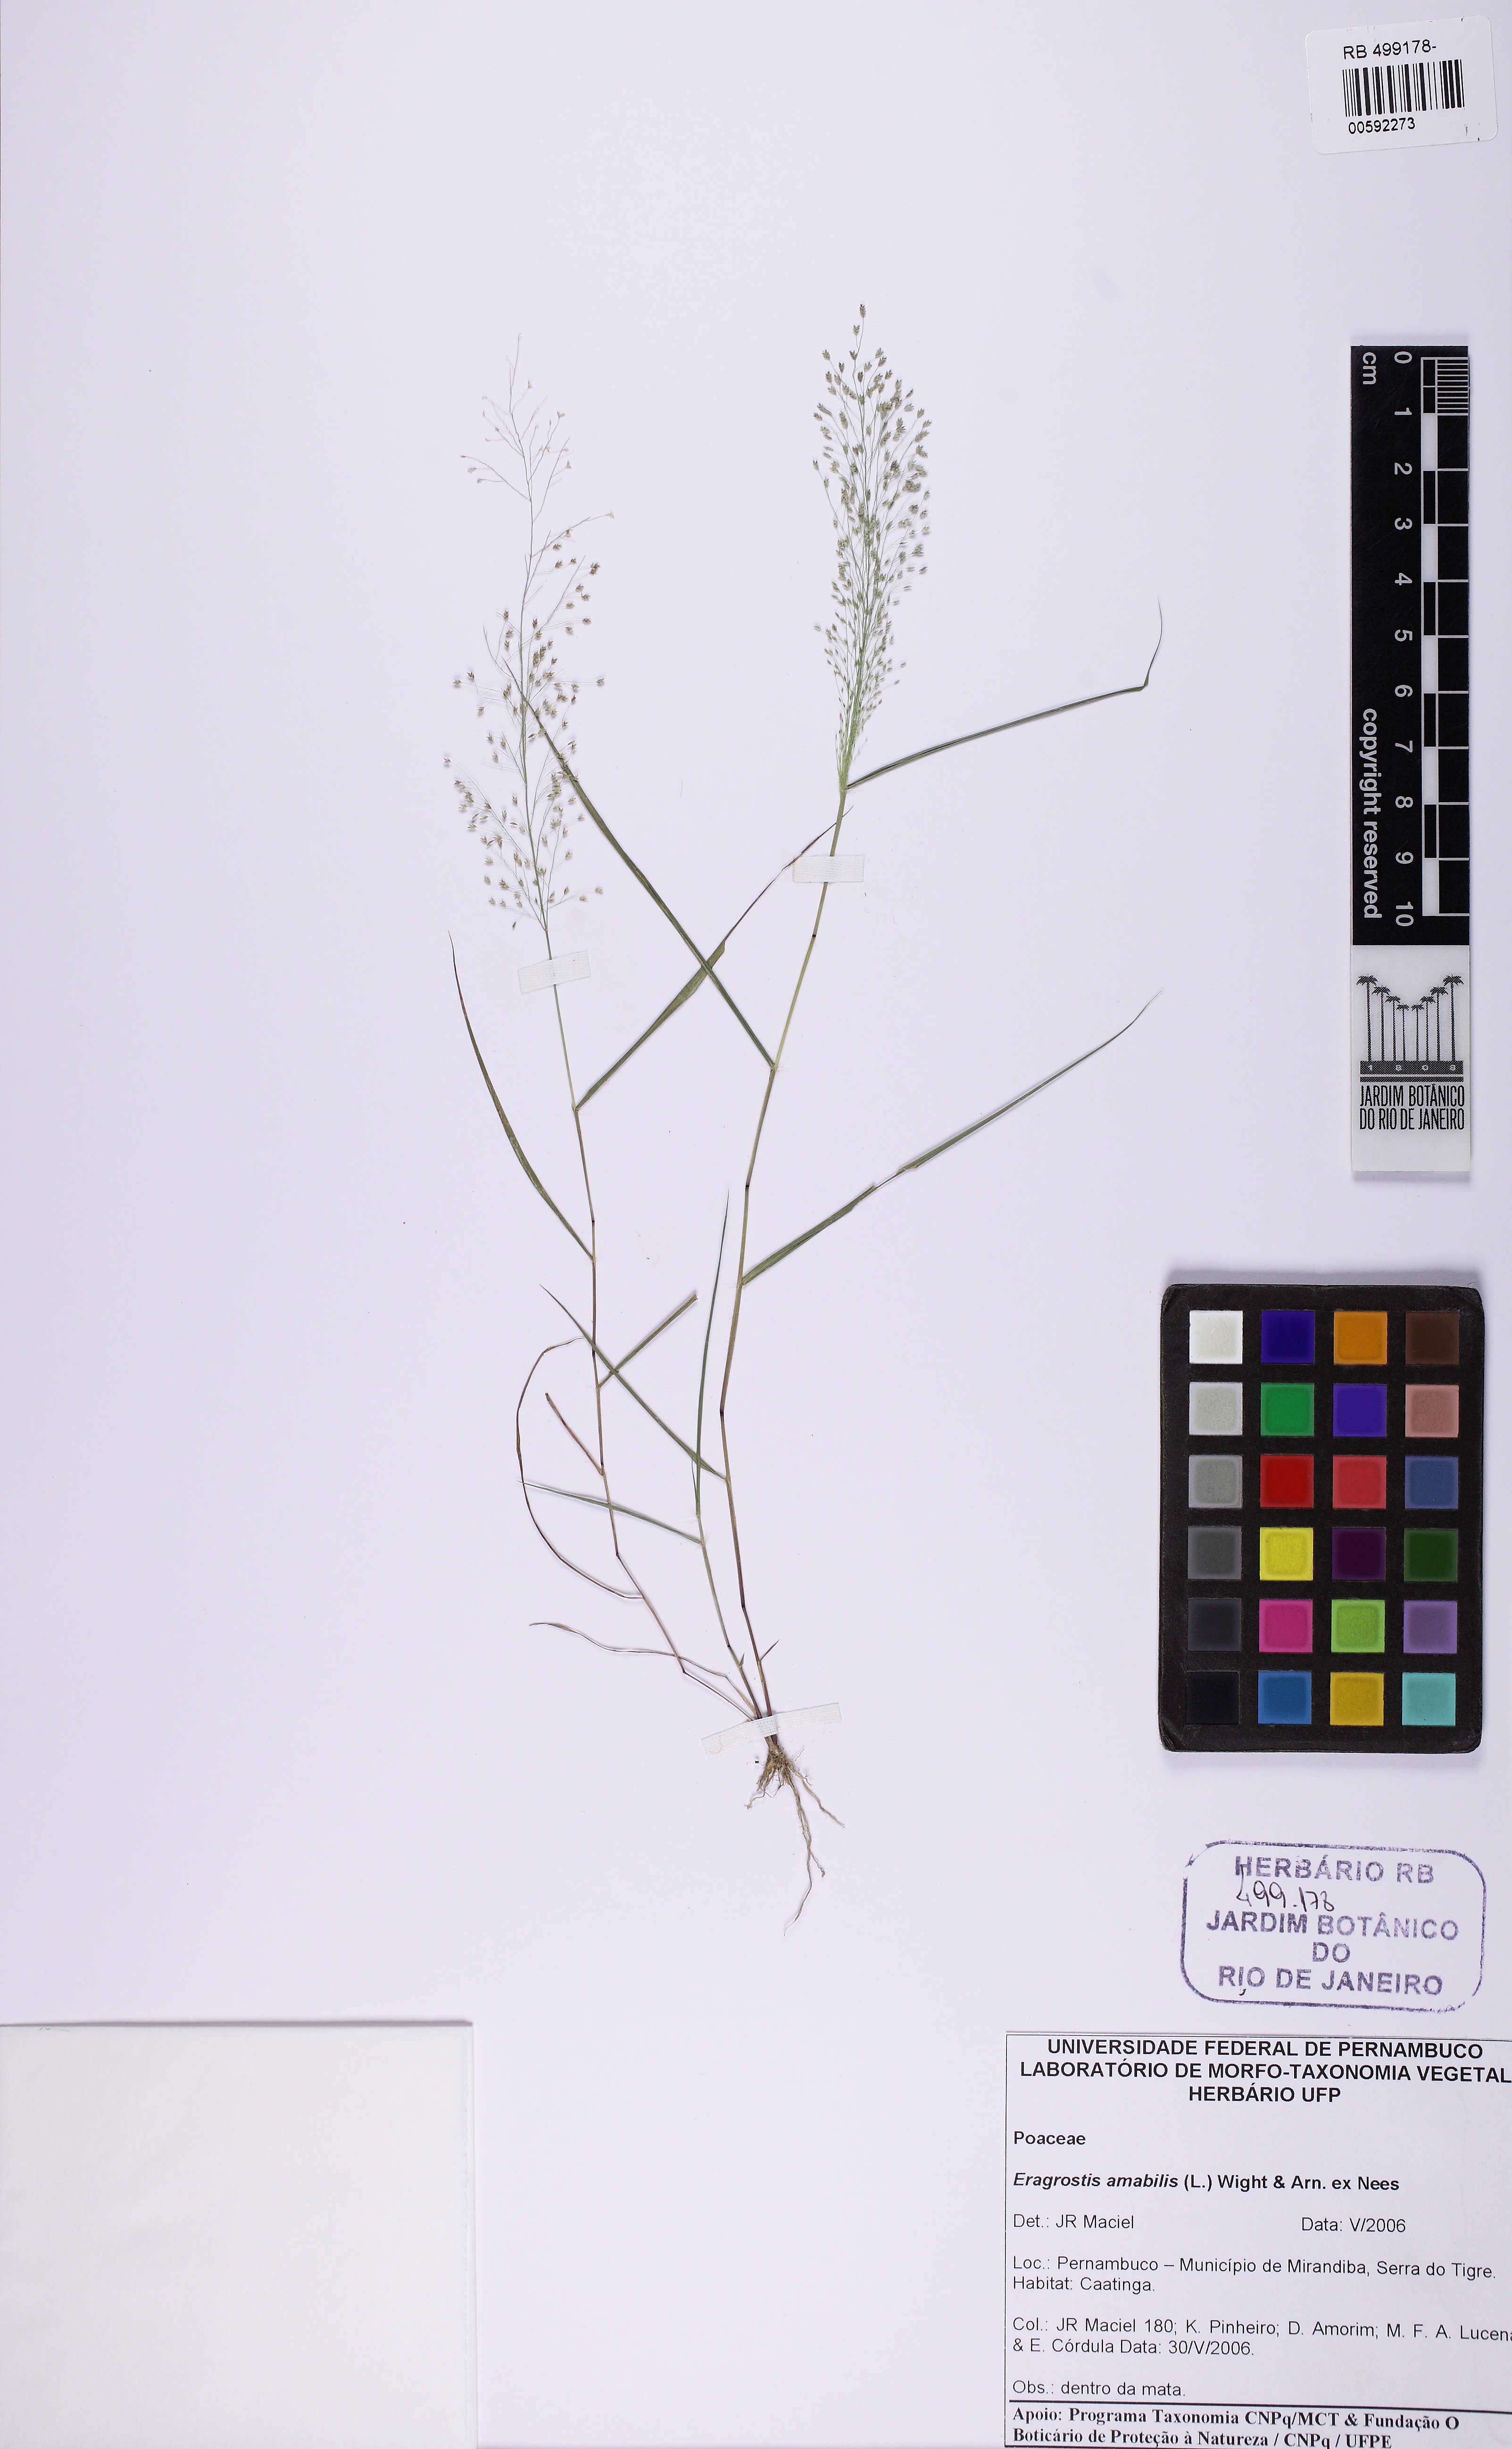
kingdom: Plantae
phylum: Tracheophyta
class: Liliopsida
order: Poales
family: Poaceae
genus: Eragrostis
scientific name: Eragrostis viscosa
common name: Sticky love grass
